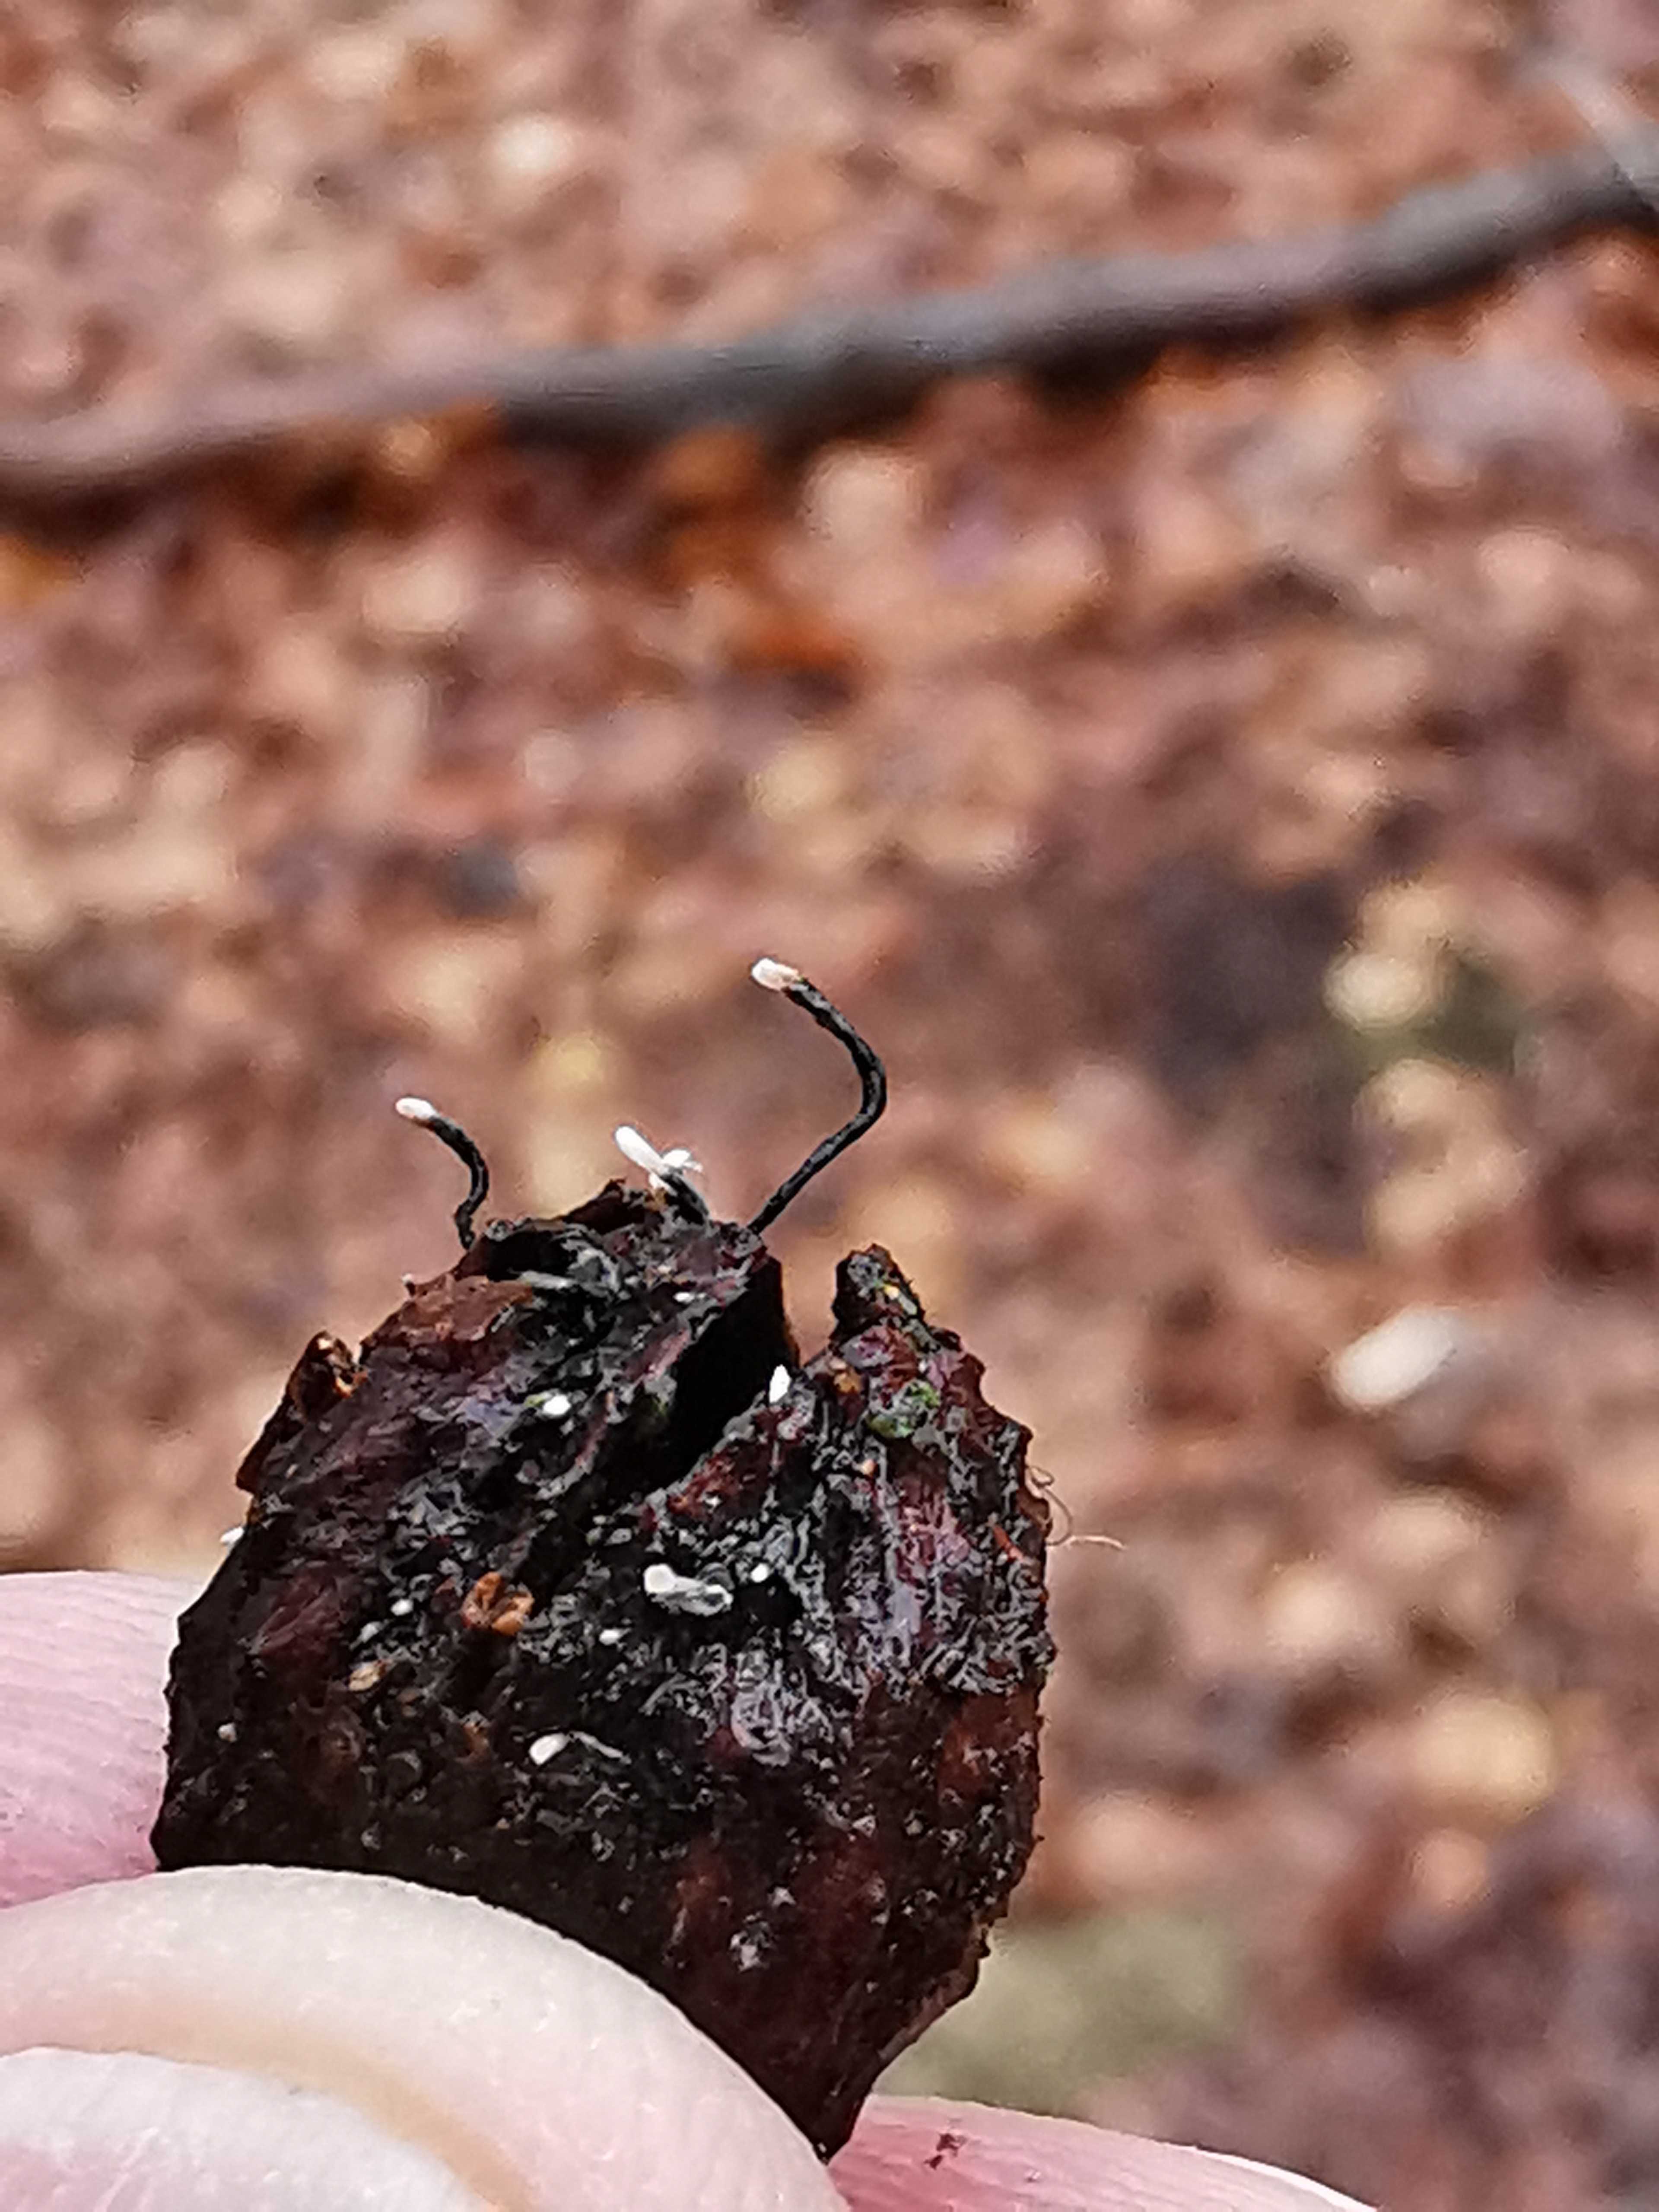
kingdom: Fungi
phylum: Ascomycota
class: Sordariomycetes
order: Xylariales
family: Xylariaceae
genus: Xylaria
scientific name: Xylaria carpophila
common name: bogskål-stødsvamp
